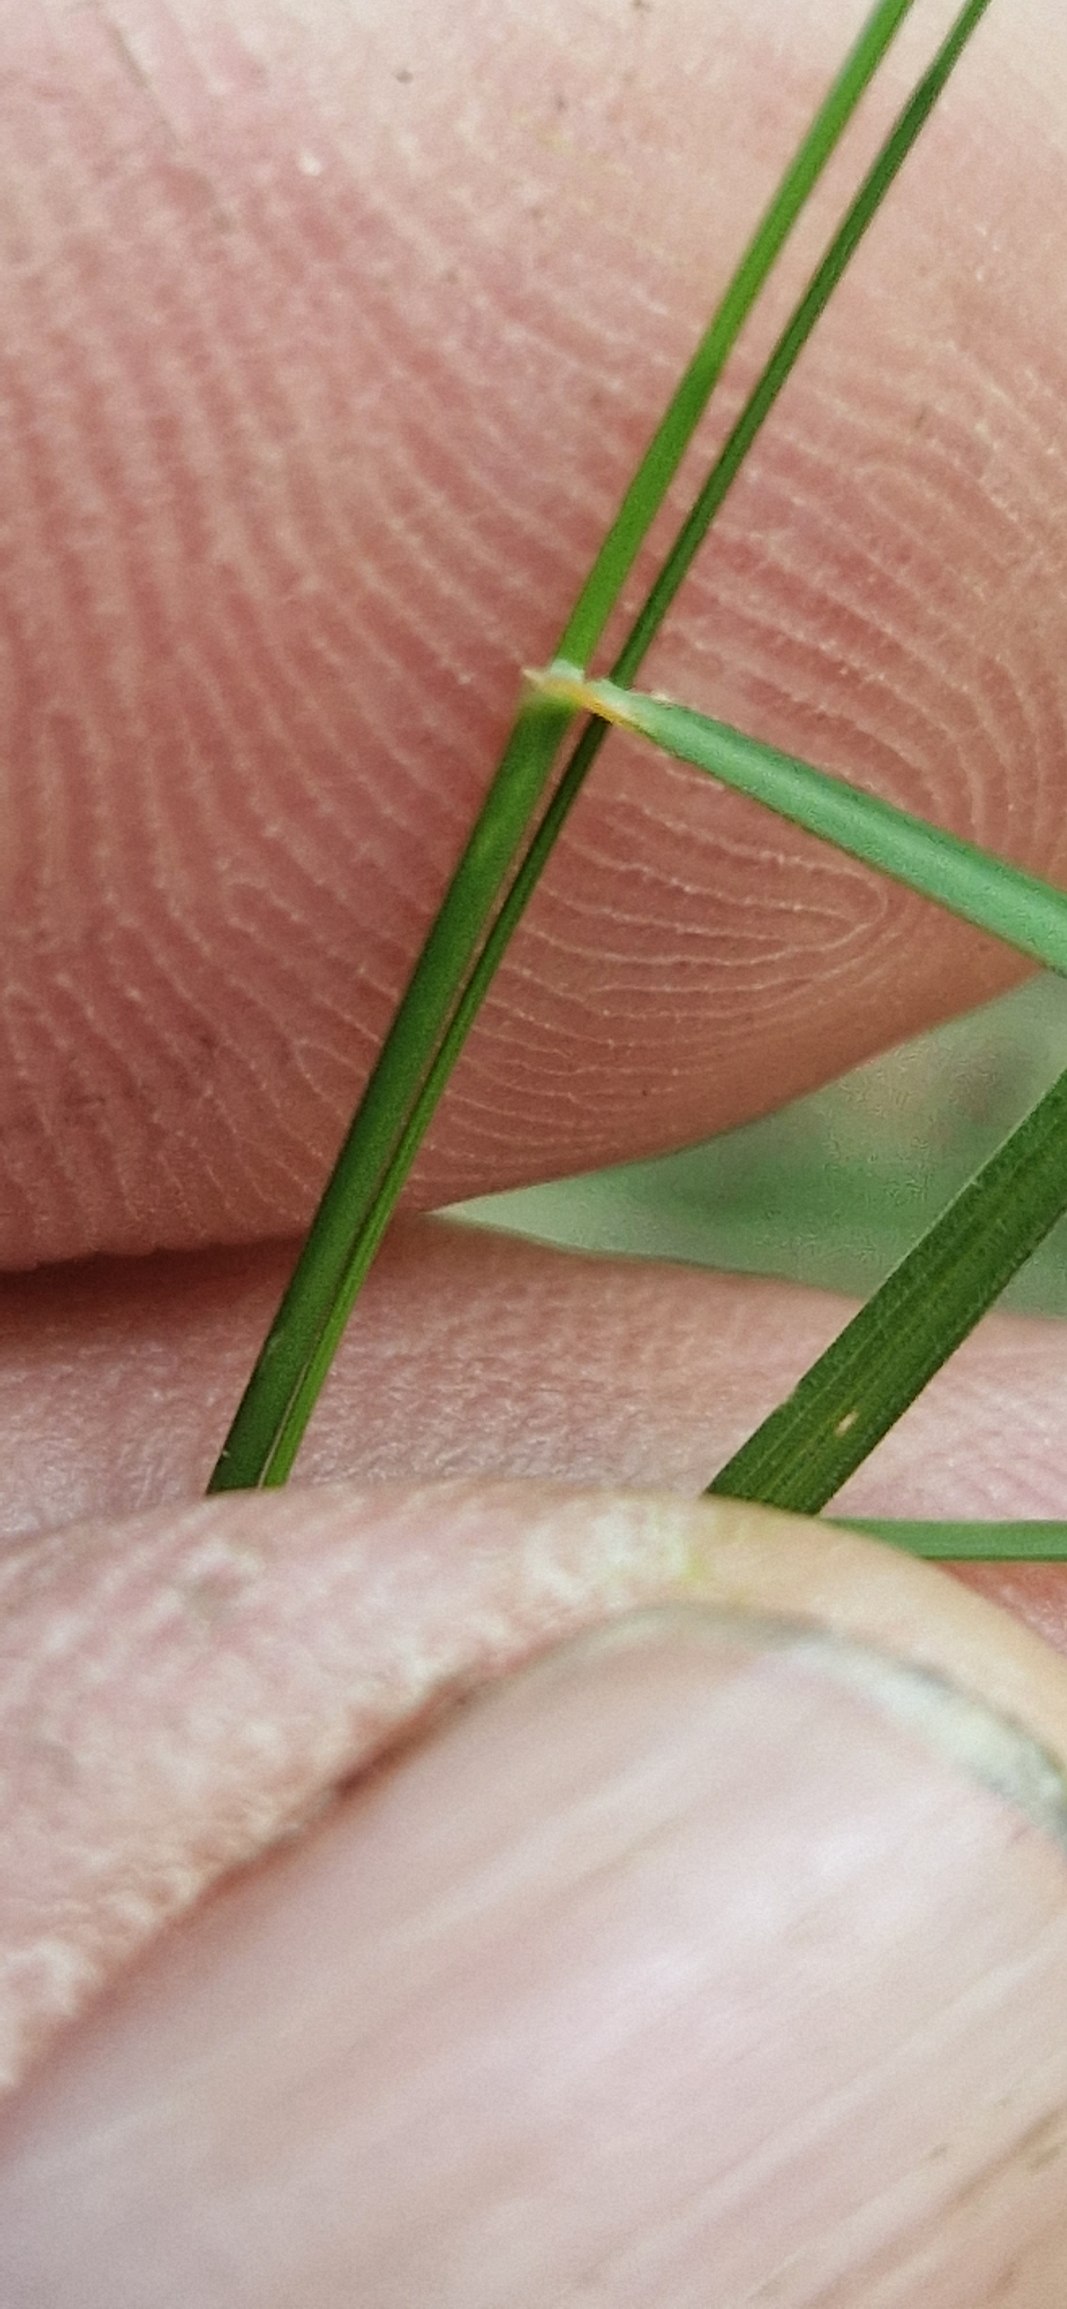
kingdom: Plantae
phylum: Tracheophyta
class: Liliopsida
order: Poales
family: Poaceae
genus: Poa
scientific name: Poa nemoralis
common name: Lund-rapgræs
